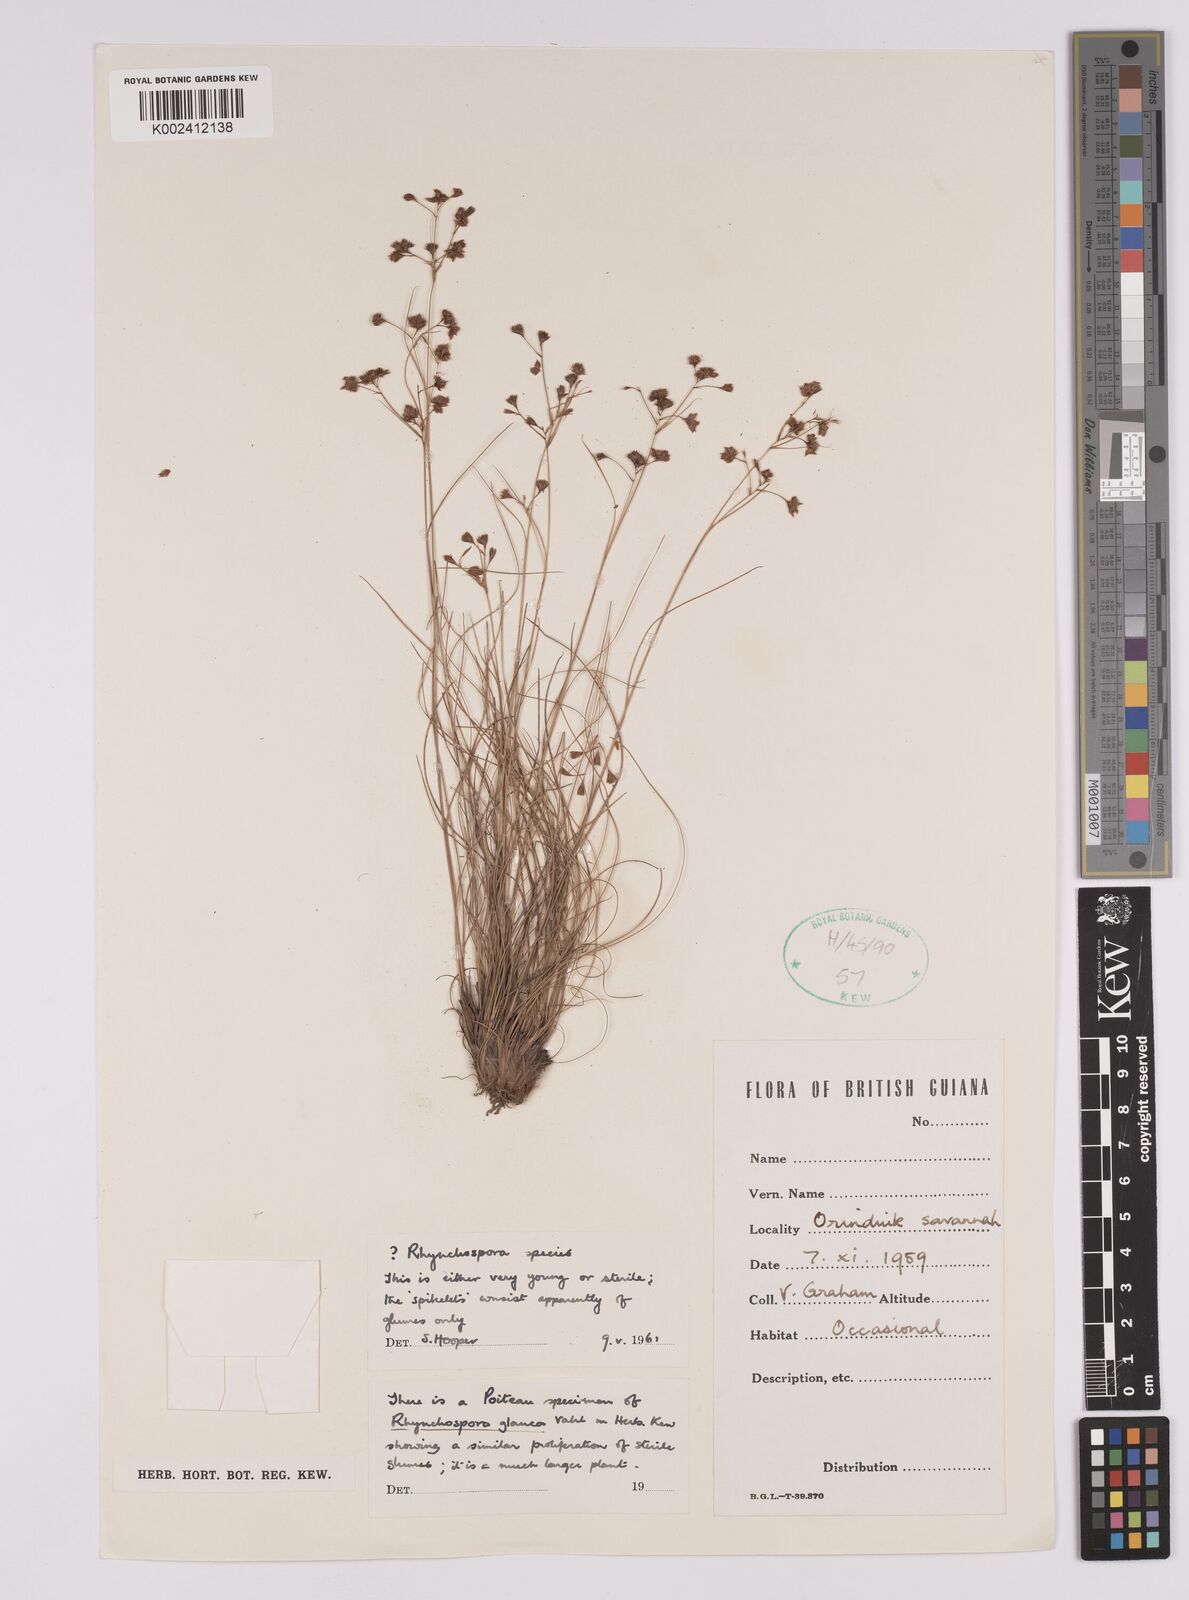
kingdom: Plantae
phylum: Tracheophyta
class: Liliopsida
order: Poales
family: Cyperaceae
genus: Rhynchospora
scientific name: Rhynchospora
